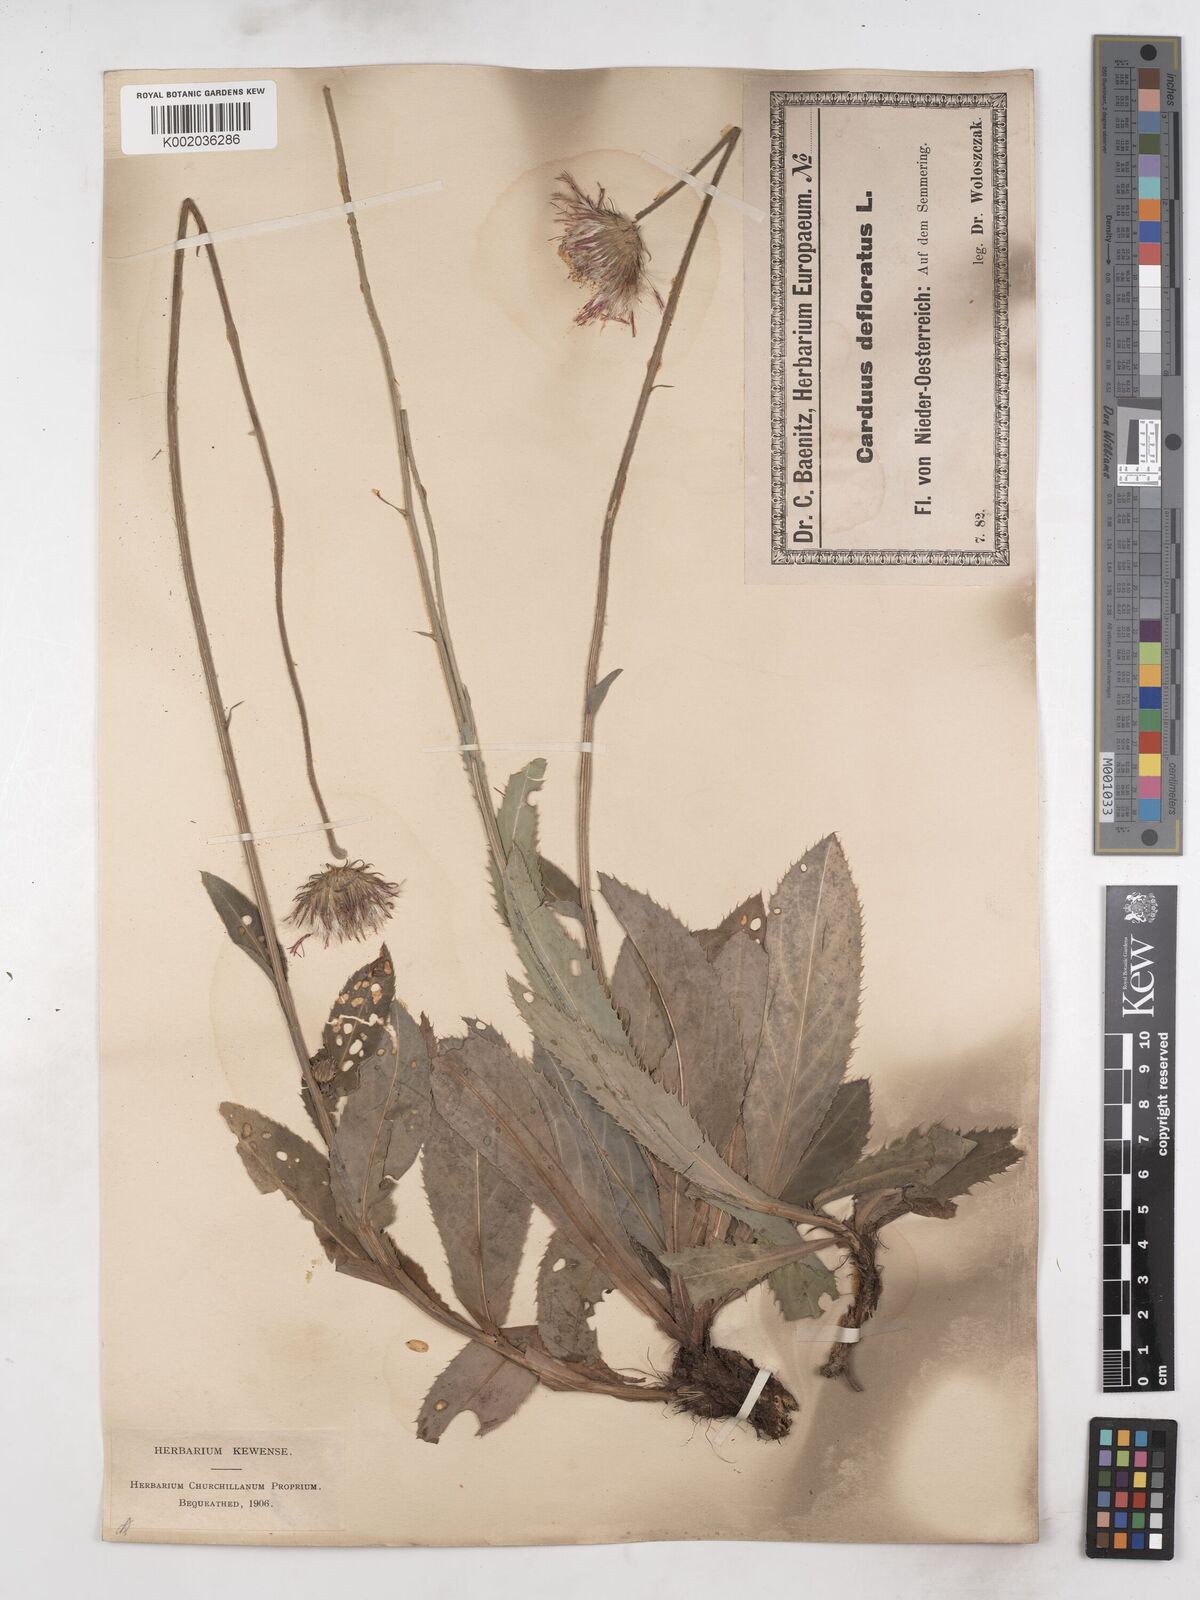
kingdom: Plantae
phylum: Tracheophyta
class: Magnoliopsida
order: Asterales
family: Asteraceae
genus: Carduus
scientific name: Carduus defloratus
